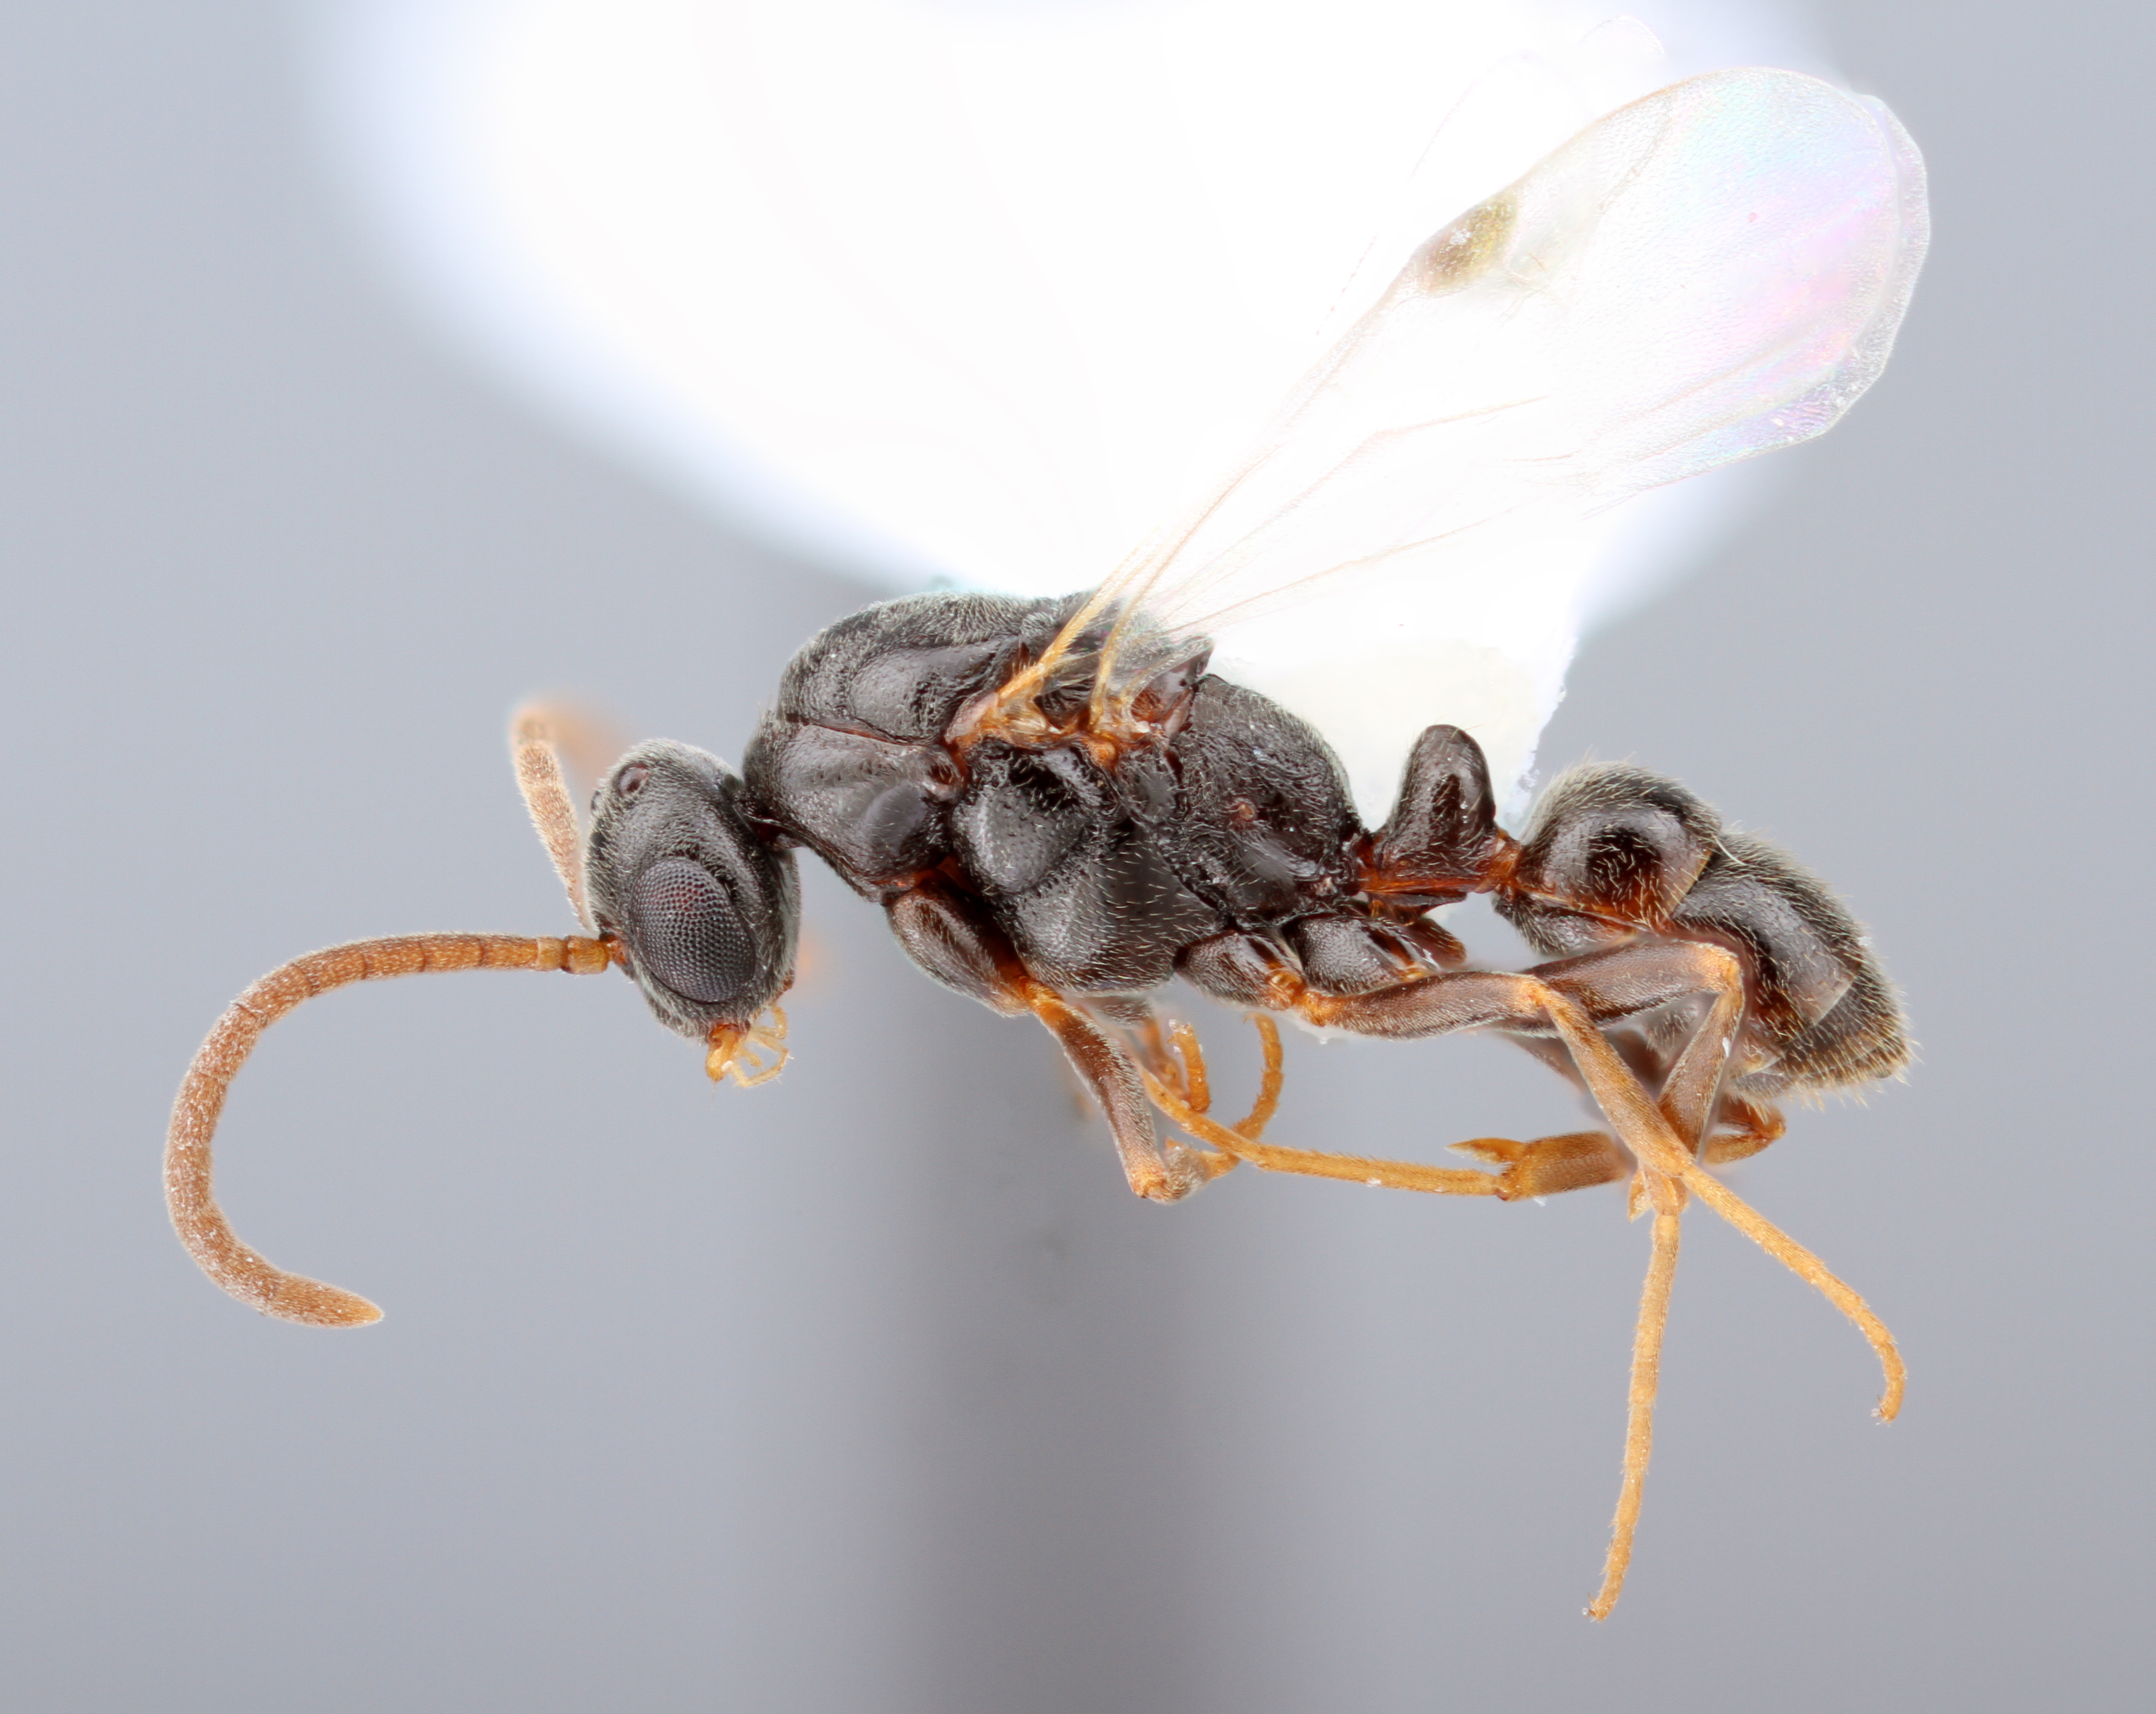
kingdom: Animalia
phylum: Arthropoda
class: Insecta
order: Hymenoptera
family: Formicidae
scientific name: Formicidae
